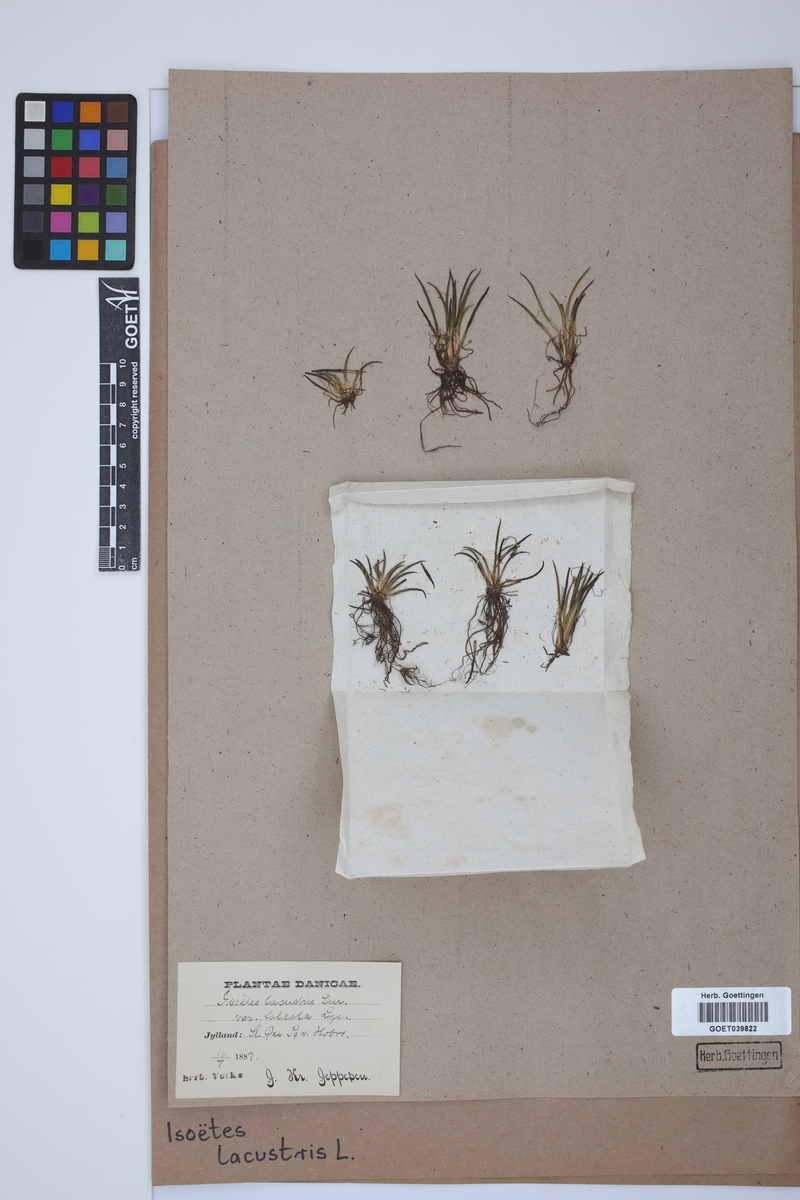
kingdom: Plantae
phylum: Tracheophyta
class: Lycopodiopsida
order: Isoetales
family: Isoetaceae
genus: Isoetes
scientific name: Isoetes lacustris
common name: Common quillwort
